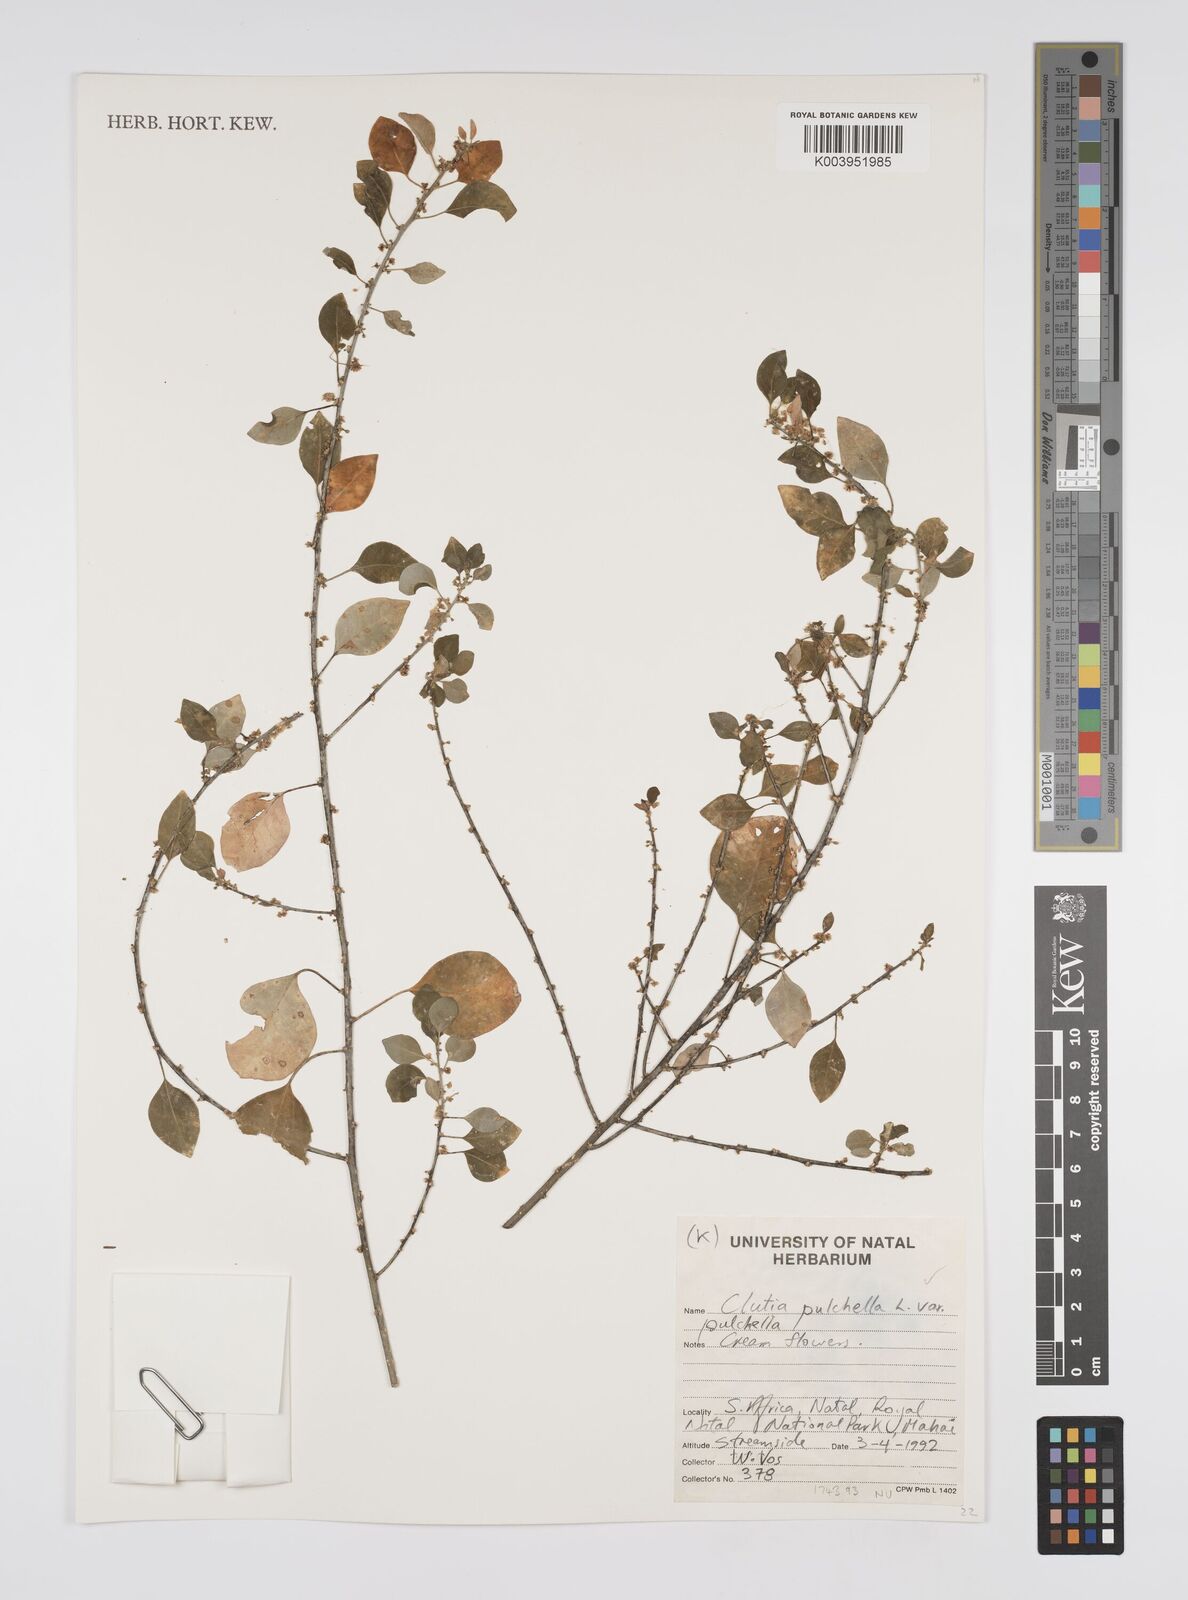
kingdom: Plantae
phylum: Tracheophyta
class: Magnoliopsida
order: Malpighiales
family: Peraceae
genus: Clutia
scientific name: Clutia pulchella
